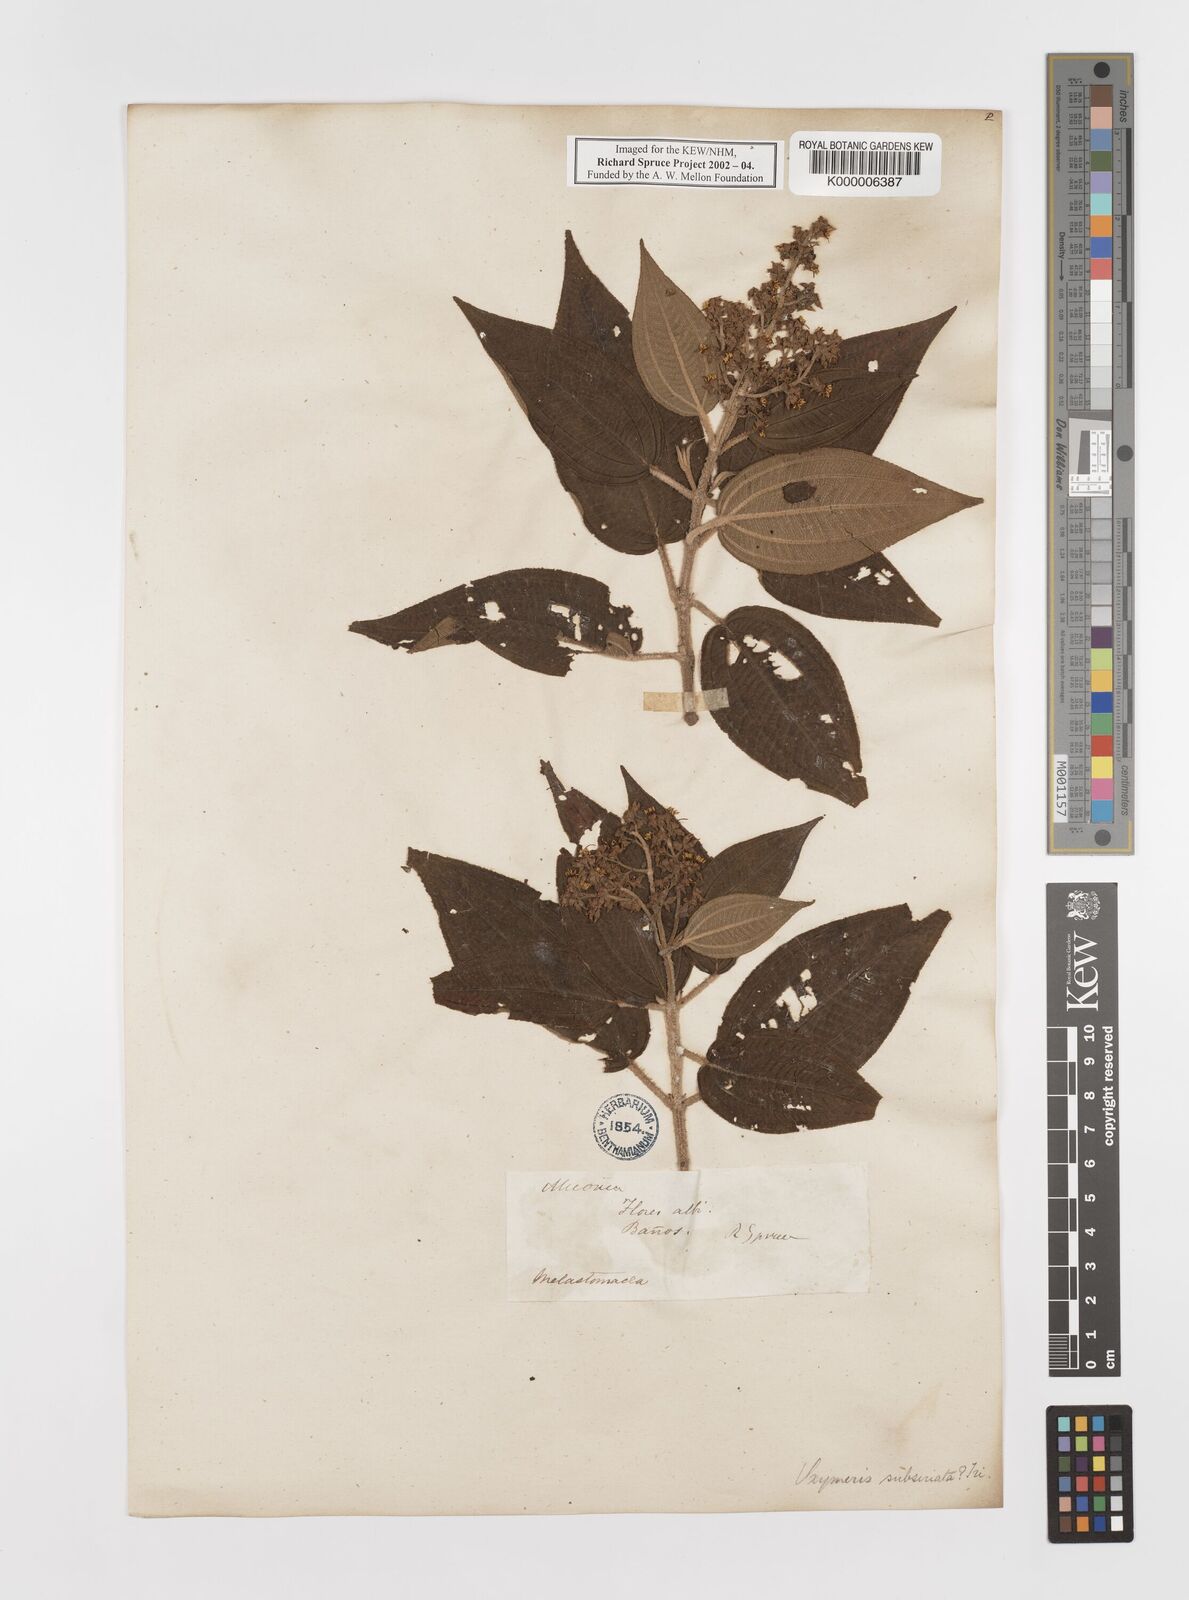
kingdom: Plantae
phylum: Tracheophyta
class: Magnoliopsida
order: Myrtales
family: Melastomataceae
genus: Miconia
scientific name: Miconia subseriata
